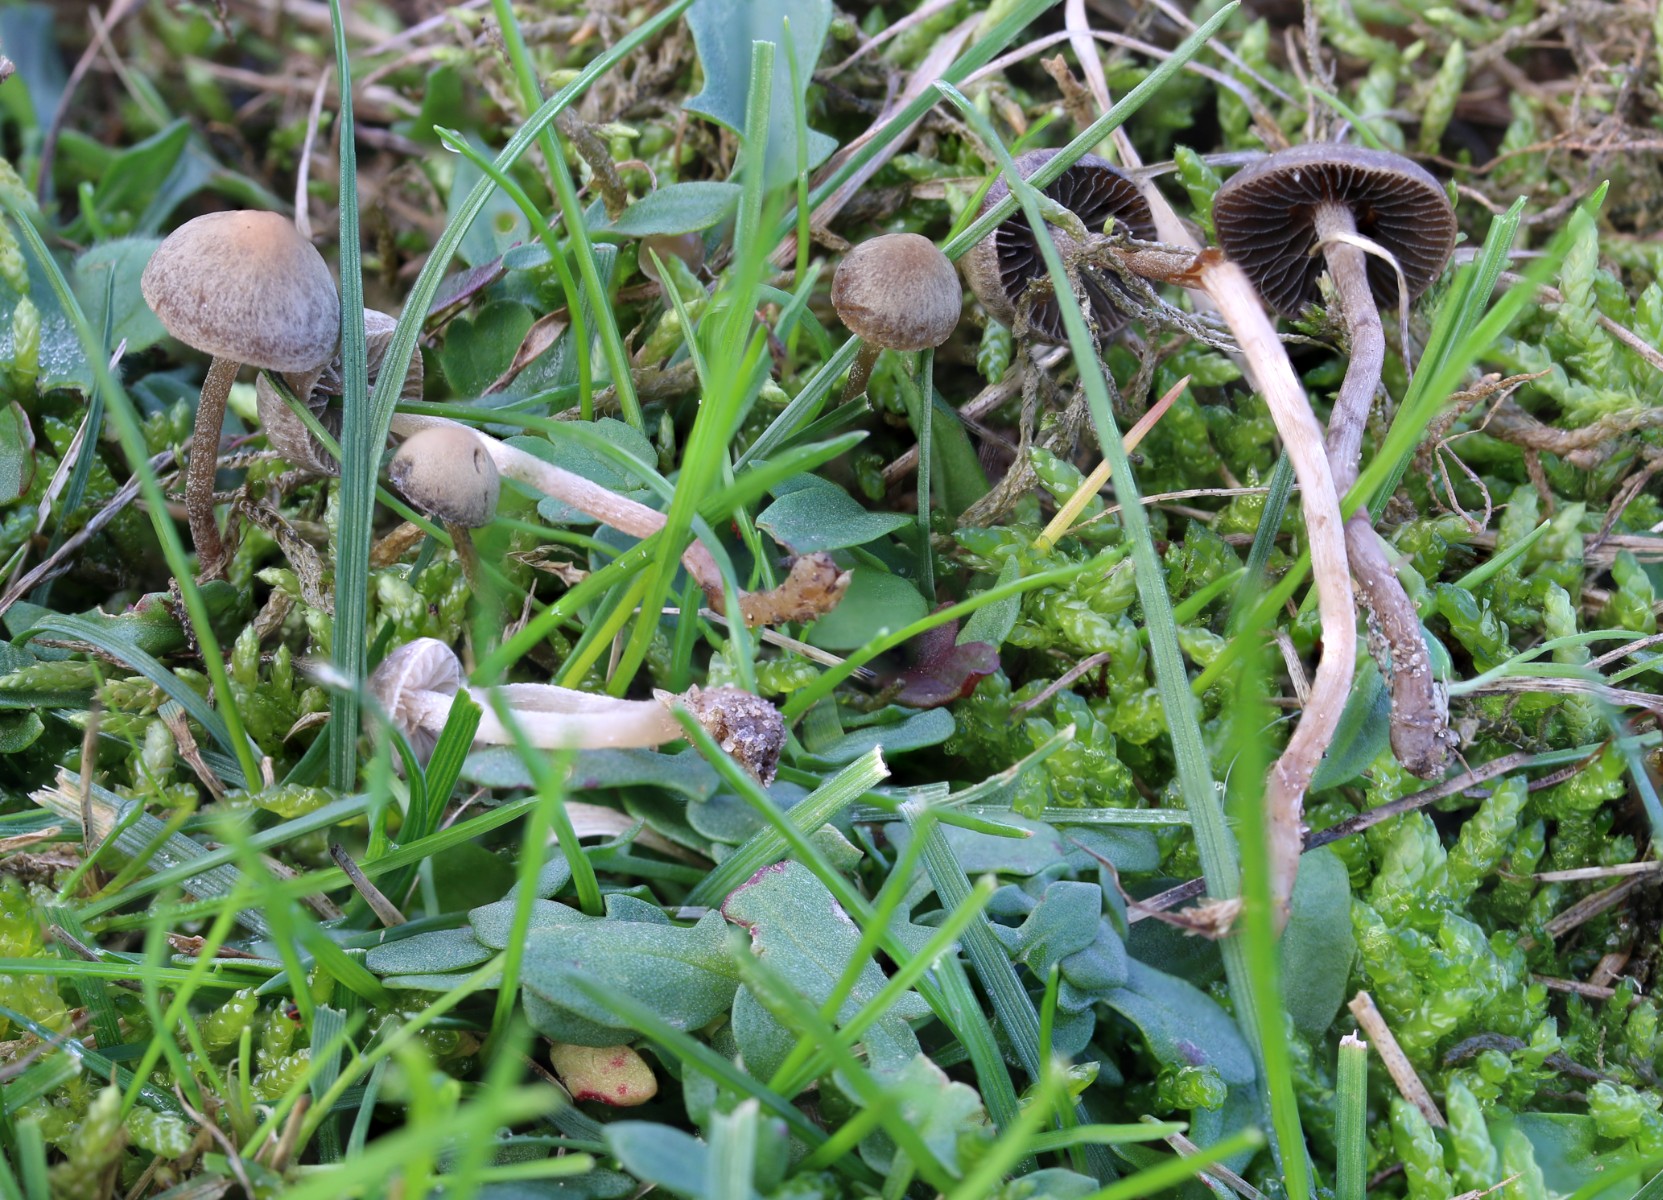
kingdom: Fungi
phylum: Basidiomycota
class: Agaricomycetes
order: Agaricales
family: Bolbitiaceae
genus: Panaeolus
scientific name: Panaeolus olivaceus
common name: lysstokket glanshat
